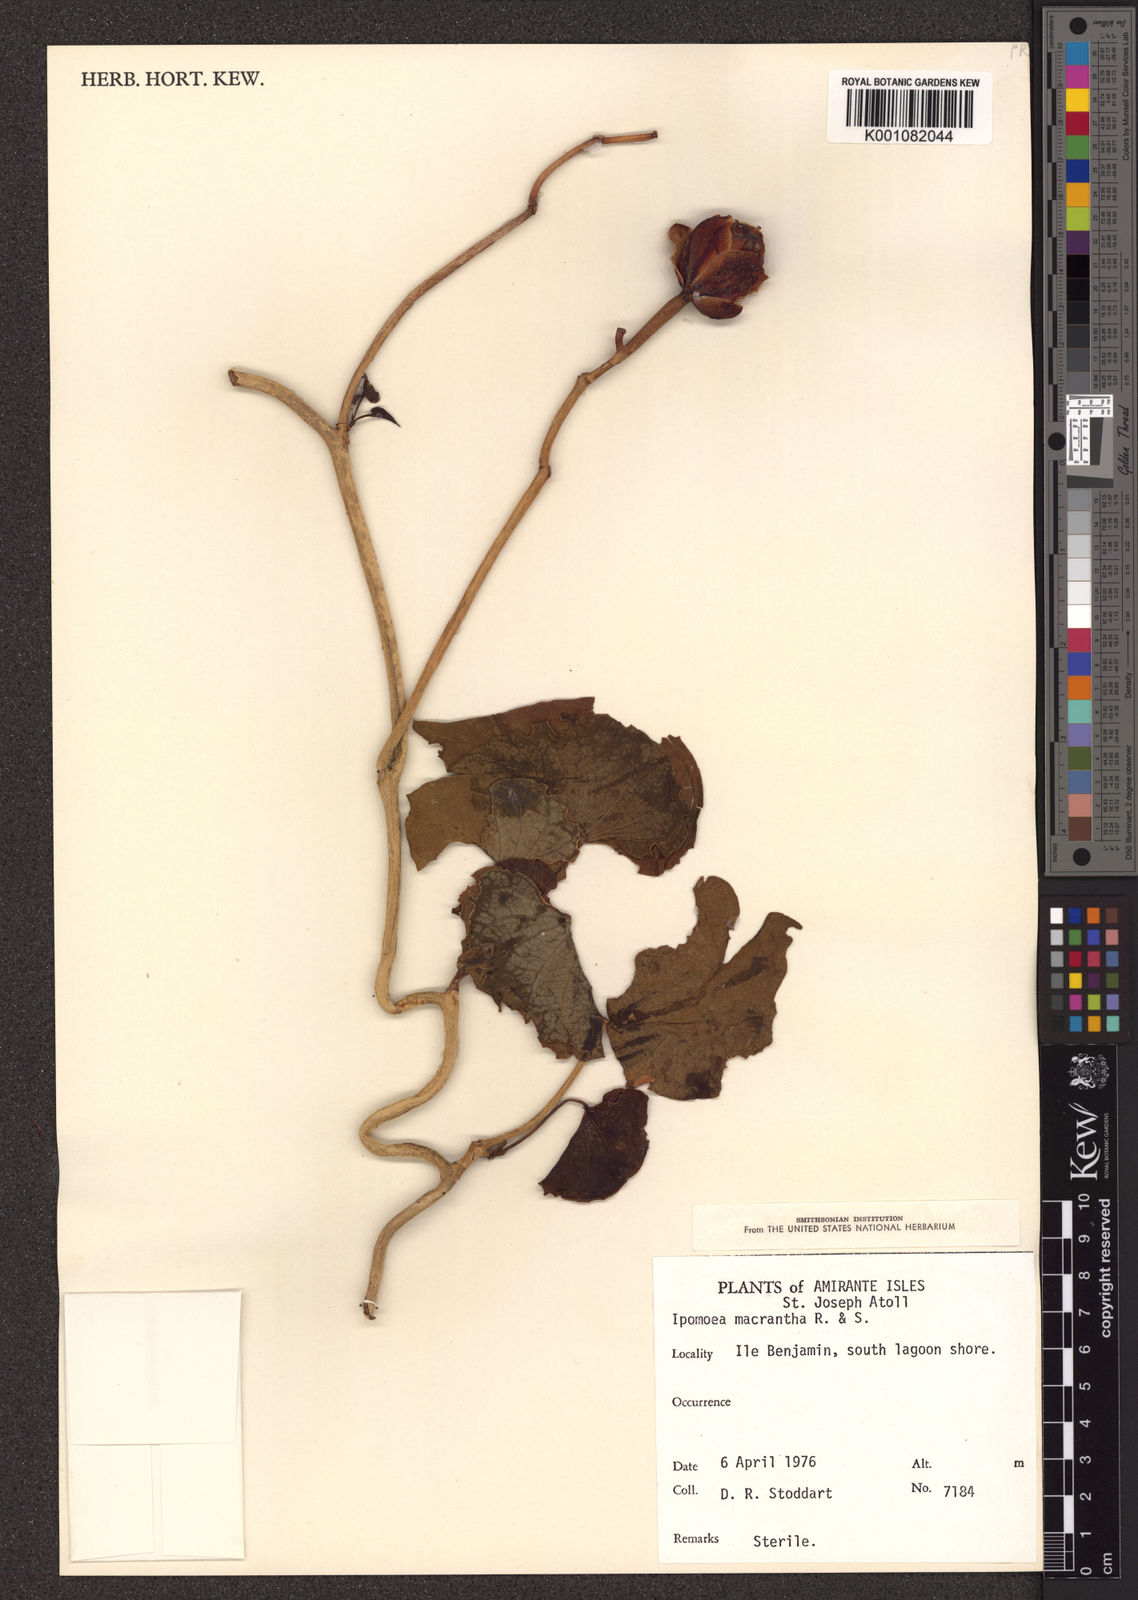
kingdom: Plantae
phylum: Tracheophyta
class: Magnoliopsida
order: Solanales
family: Convolvulaceae
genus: Ipomoea
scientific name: Ipomoea violacea
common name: Beach moonflower
